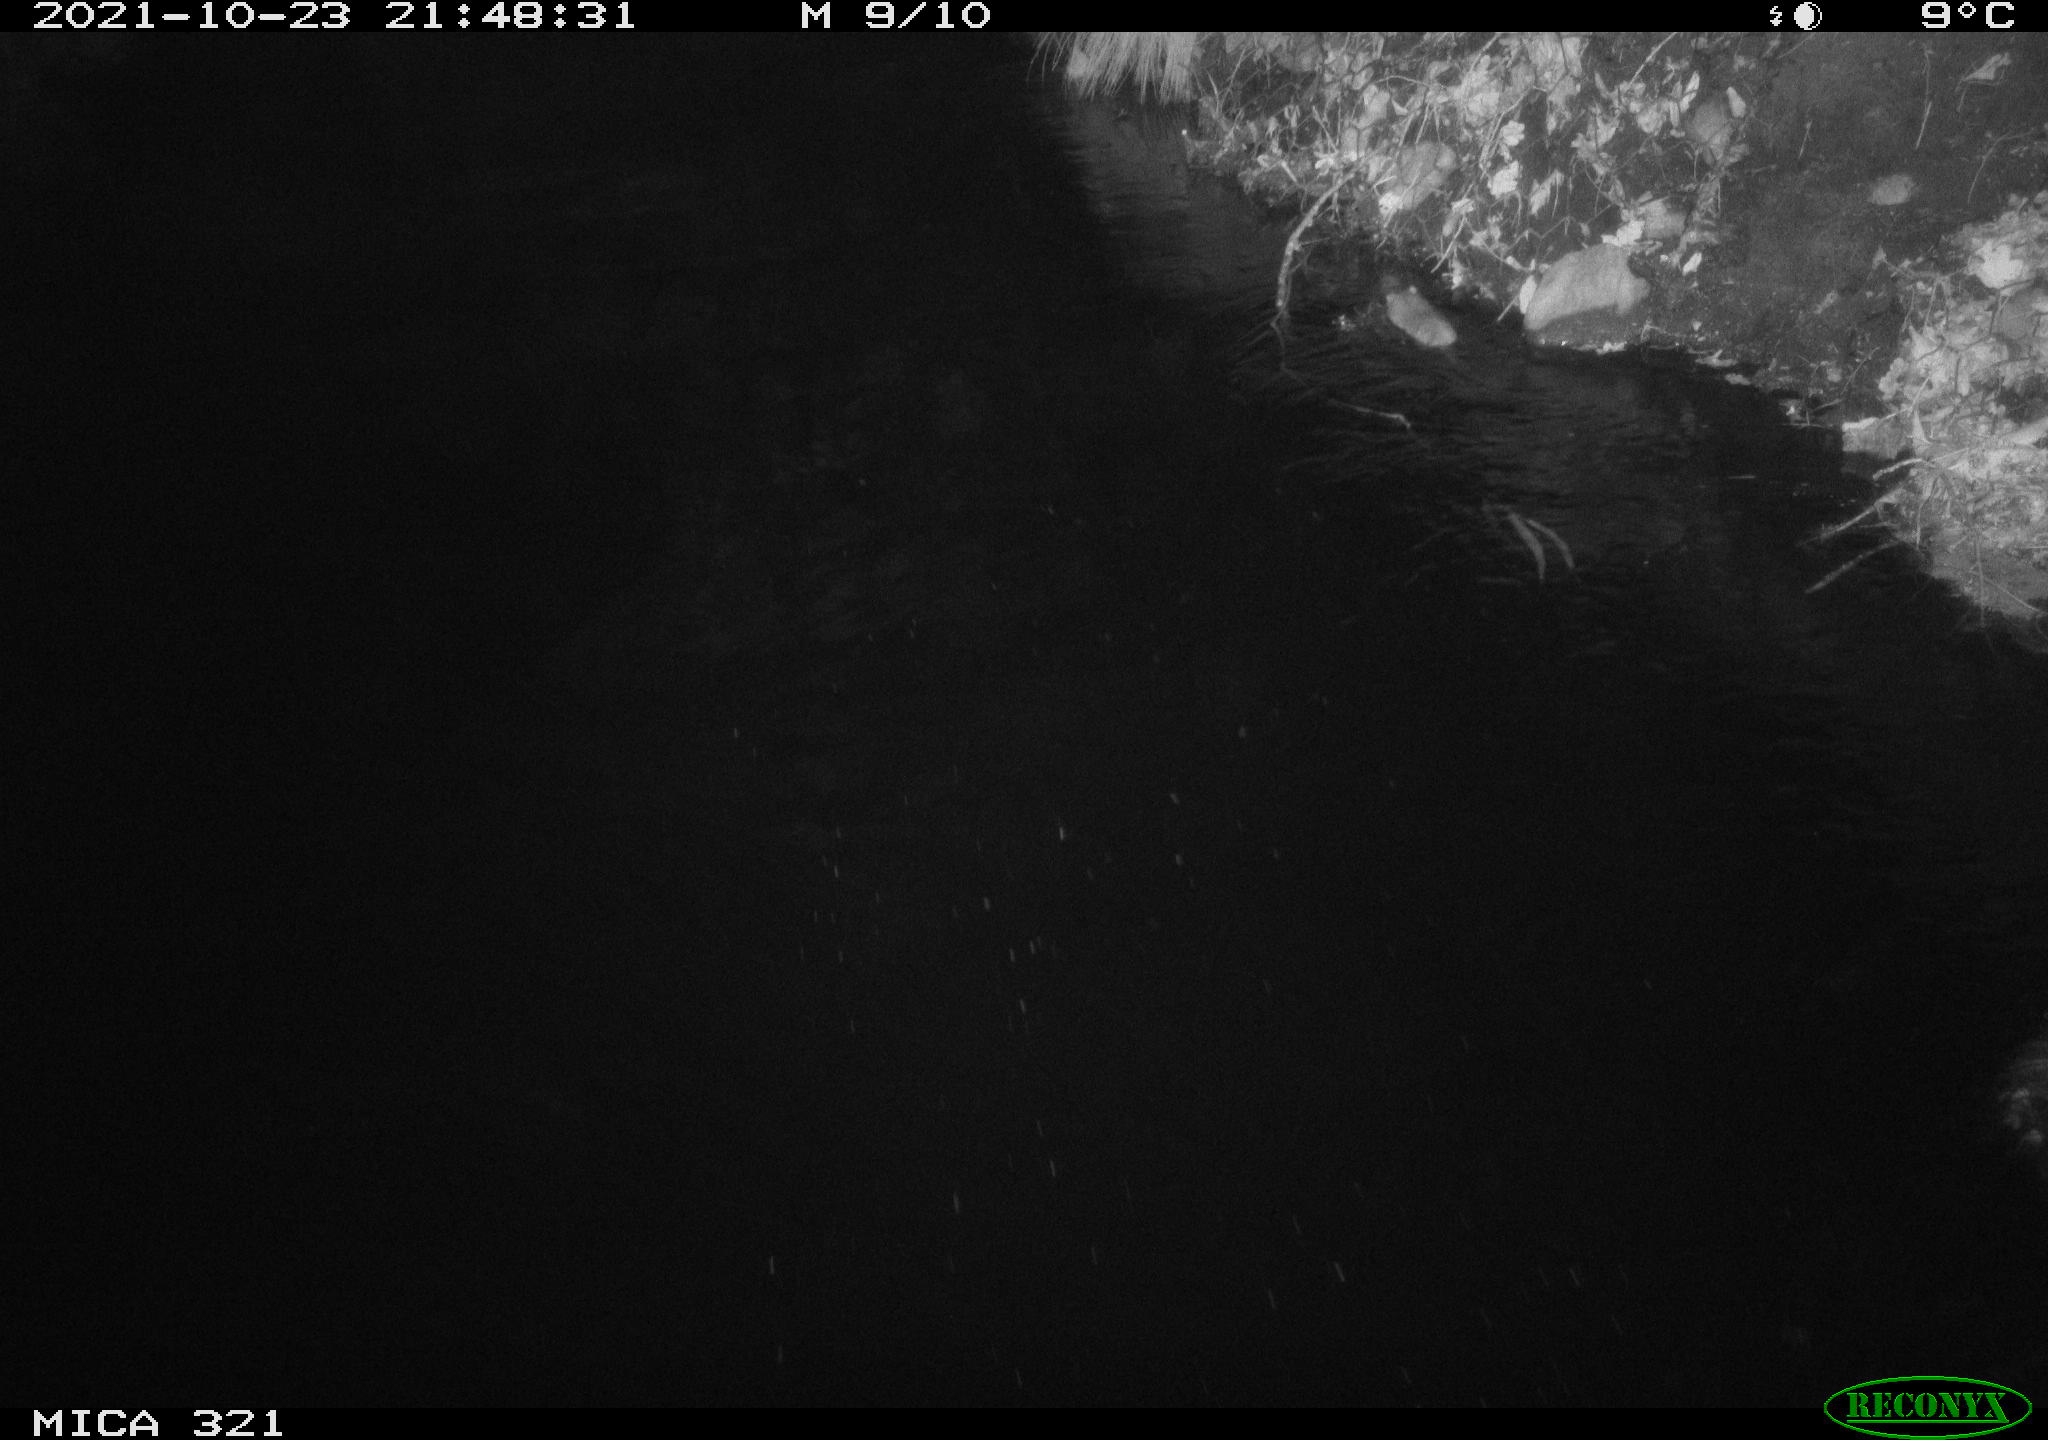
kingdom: Animalia
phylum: Chordata
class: Mammalia
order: Rodentia
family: Muridae
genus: Rattus
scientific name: Rattus norvegicus
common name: Brown rat
